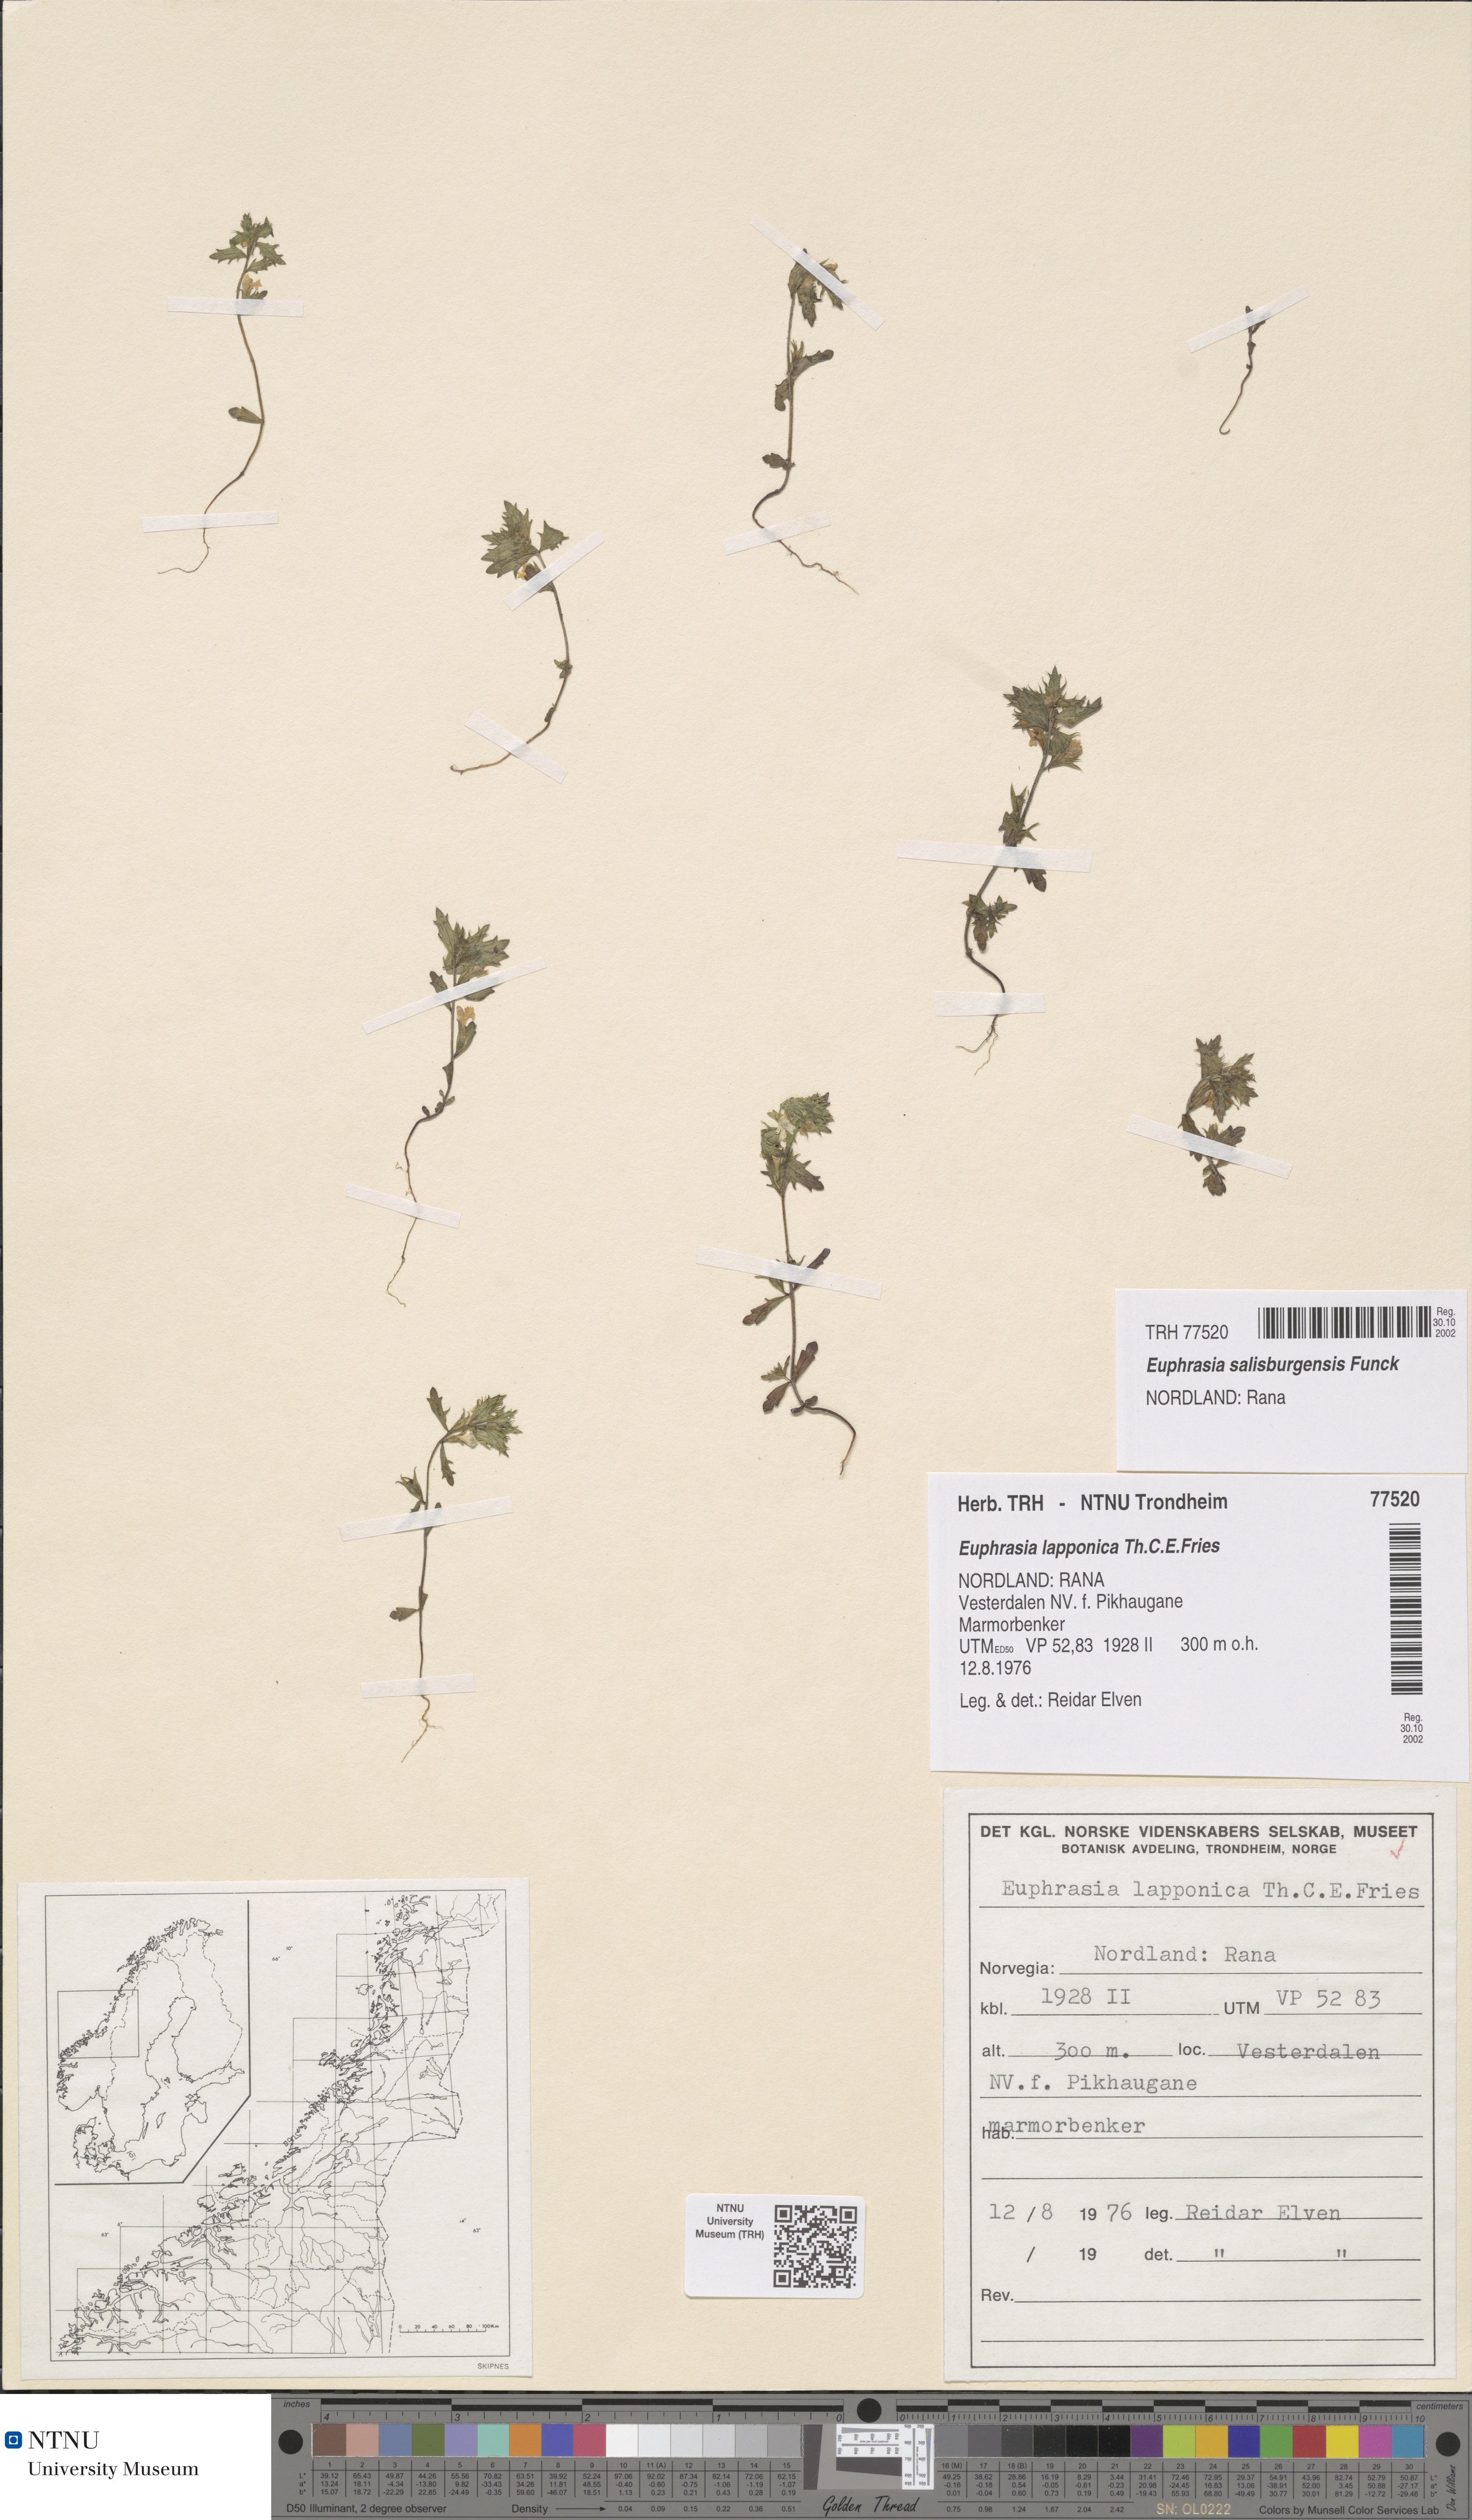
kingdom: Plantae
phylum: Tracheophyta
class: Magnoliopsida
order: Lamiales
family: Orobanchaceae
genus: Euphrasia
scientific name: Euphrasia salisburgensis
